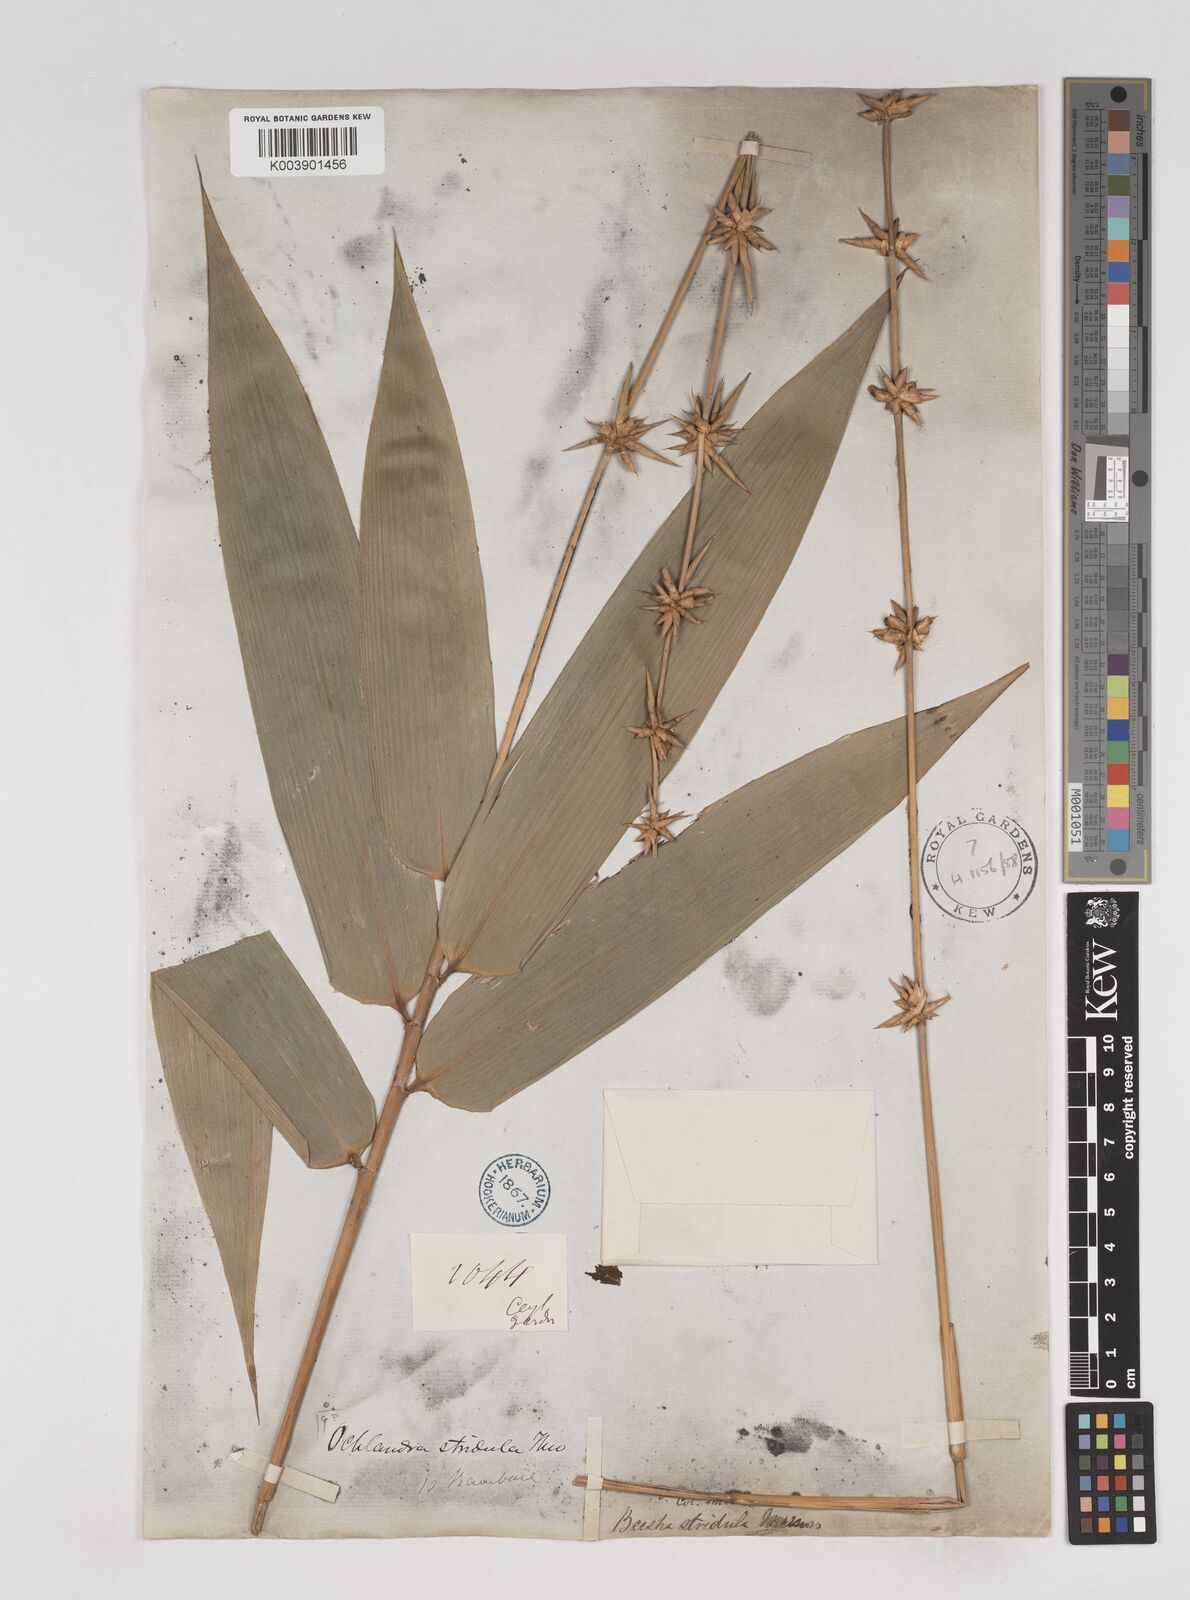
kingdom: Plantae
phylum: Tracheophyta
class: Liliopsida
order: Poales
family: Poaceae
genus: Ochlandra
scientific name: Ochlandra stridula
